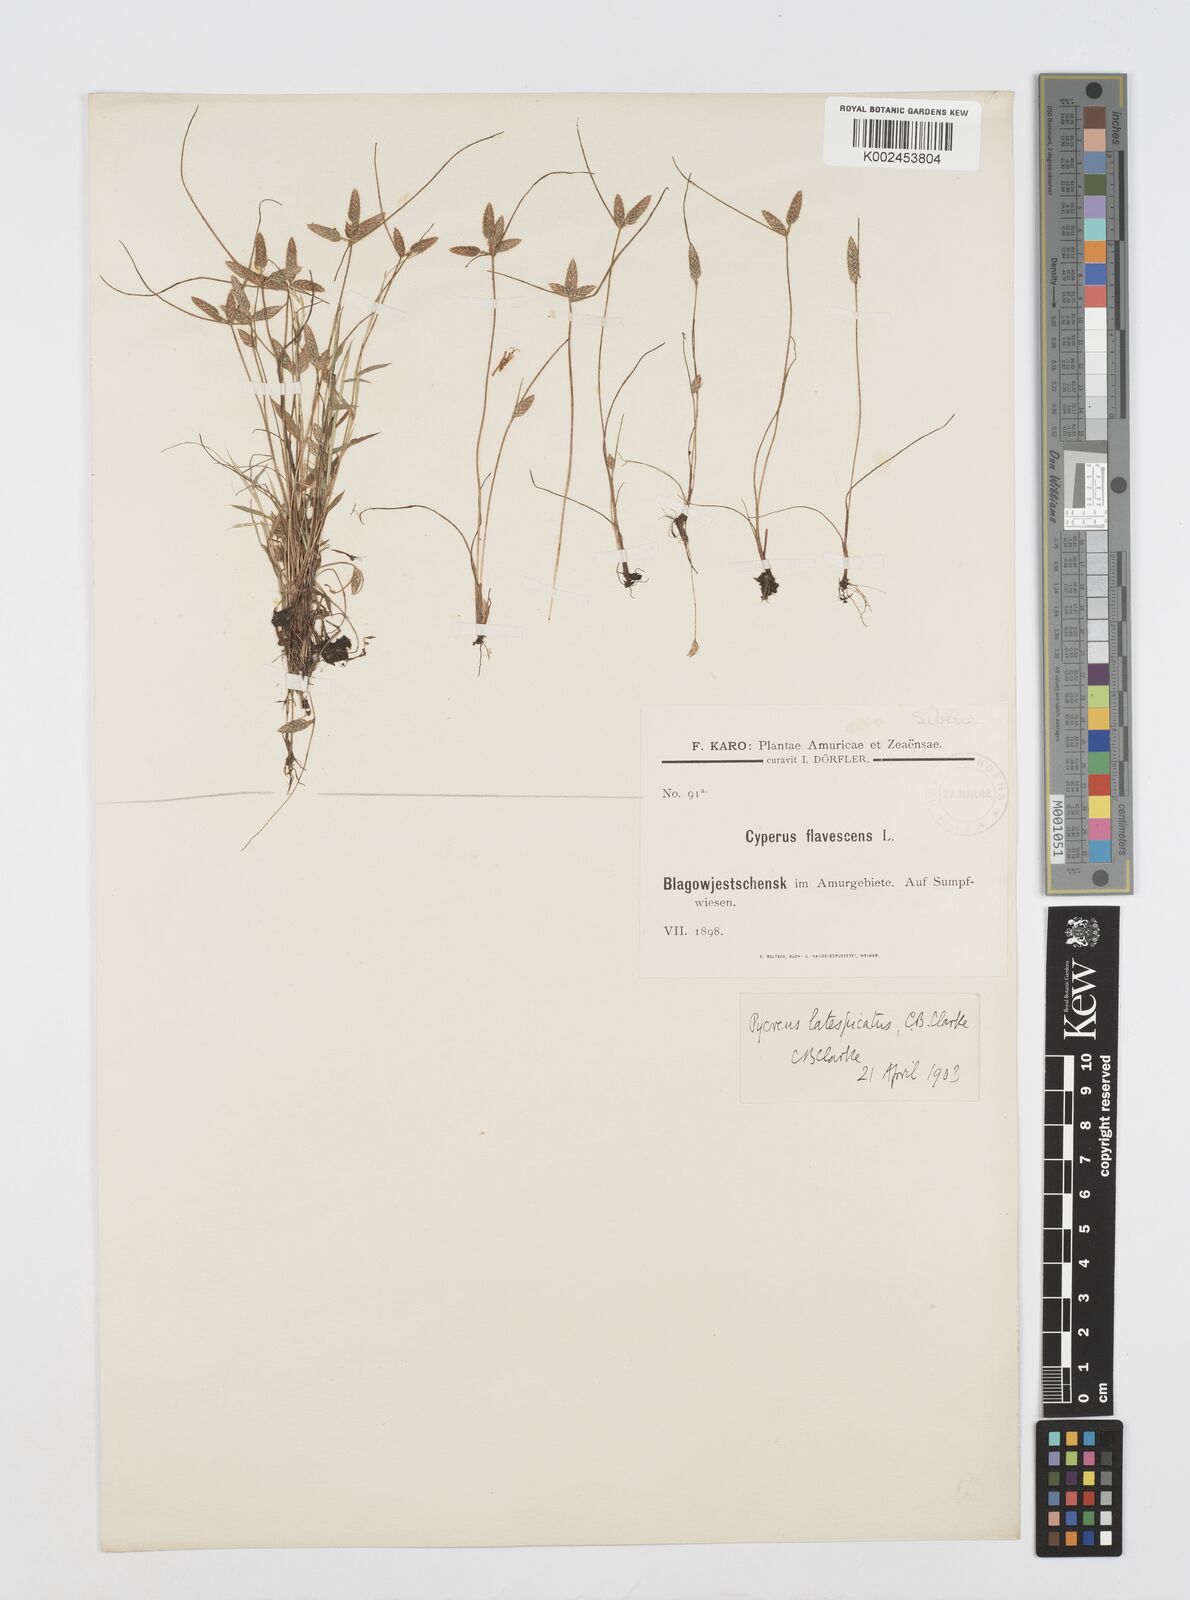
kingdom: Plantae
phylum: Tracheophyta
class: Liliopsida
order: Poales
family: Cyperaceae
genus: Cyperus
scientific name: Cyperus diaphanus
